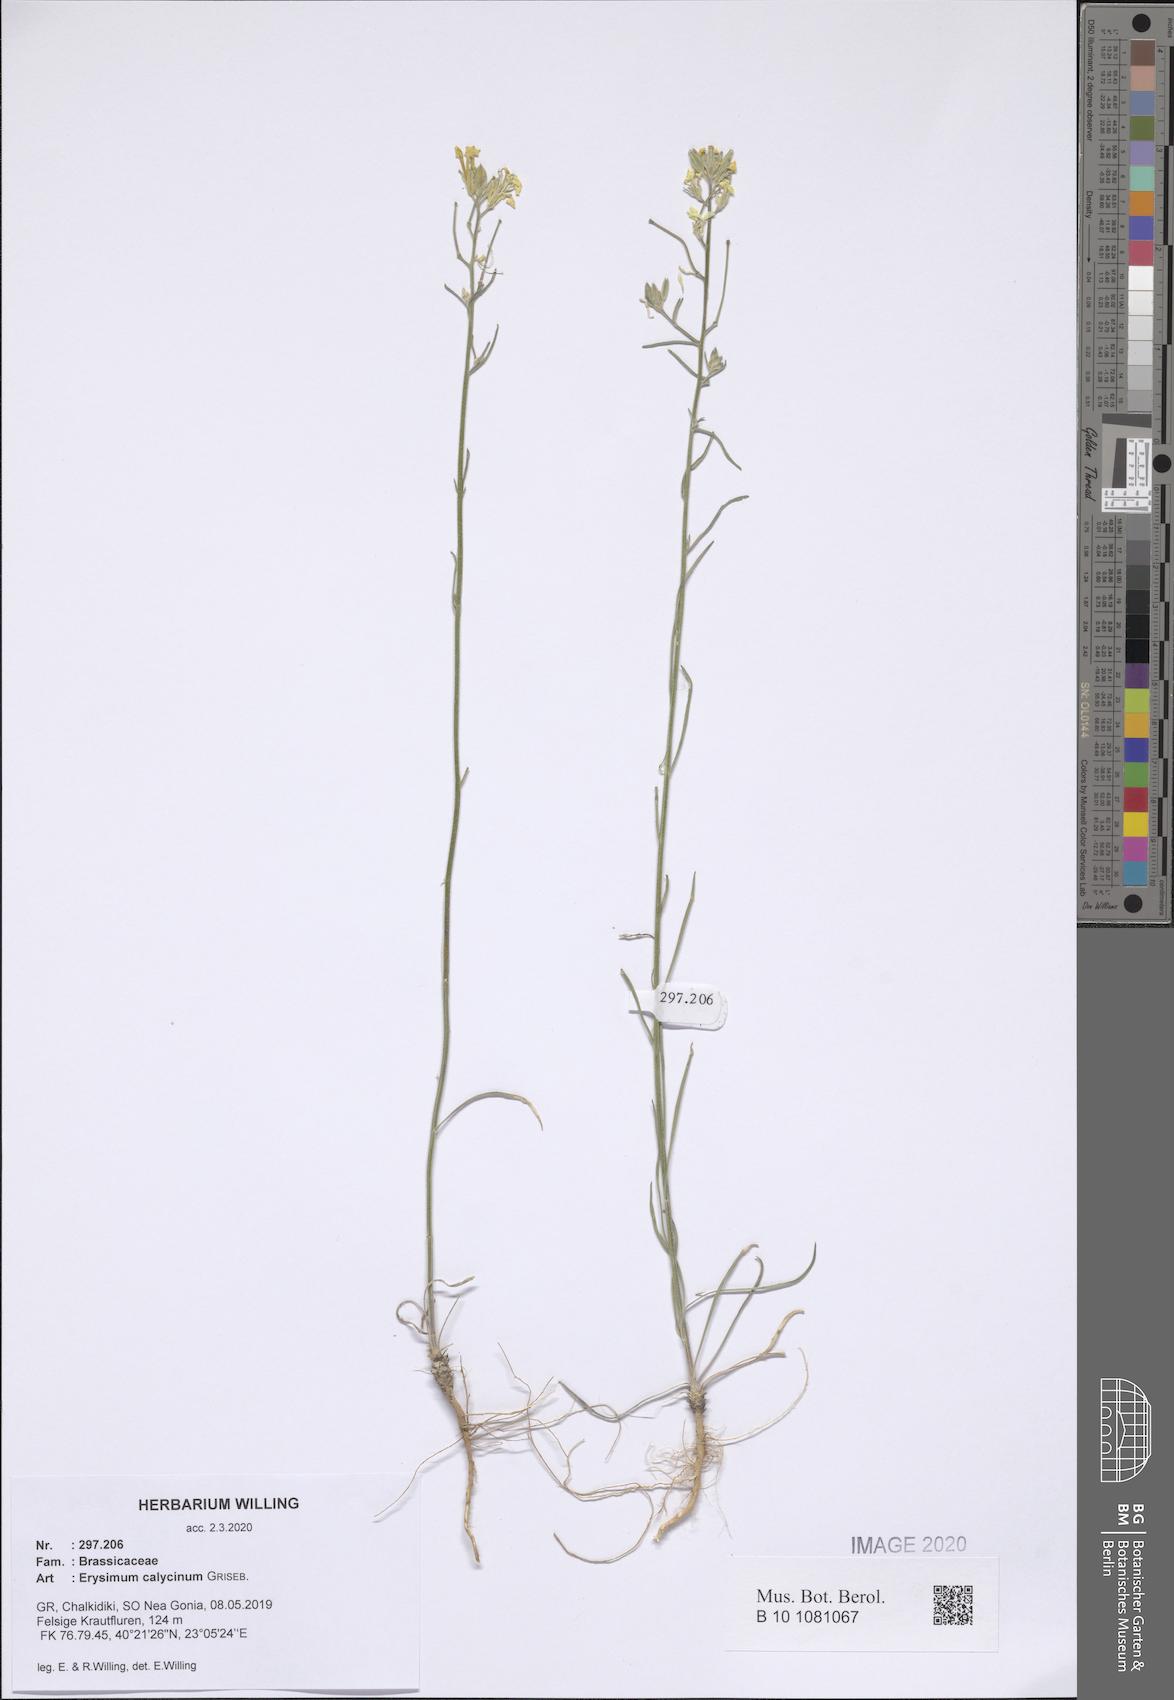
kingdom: Plantae
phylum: Tracheophyta
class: Magnoliopsida
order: Brassicales
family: Brassicaceae
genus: Erysimum
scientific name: Erysimum calycinum
